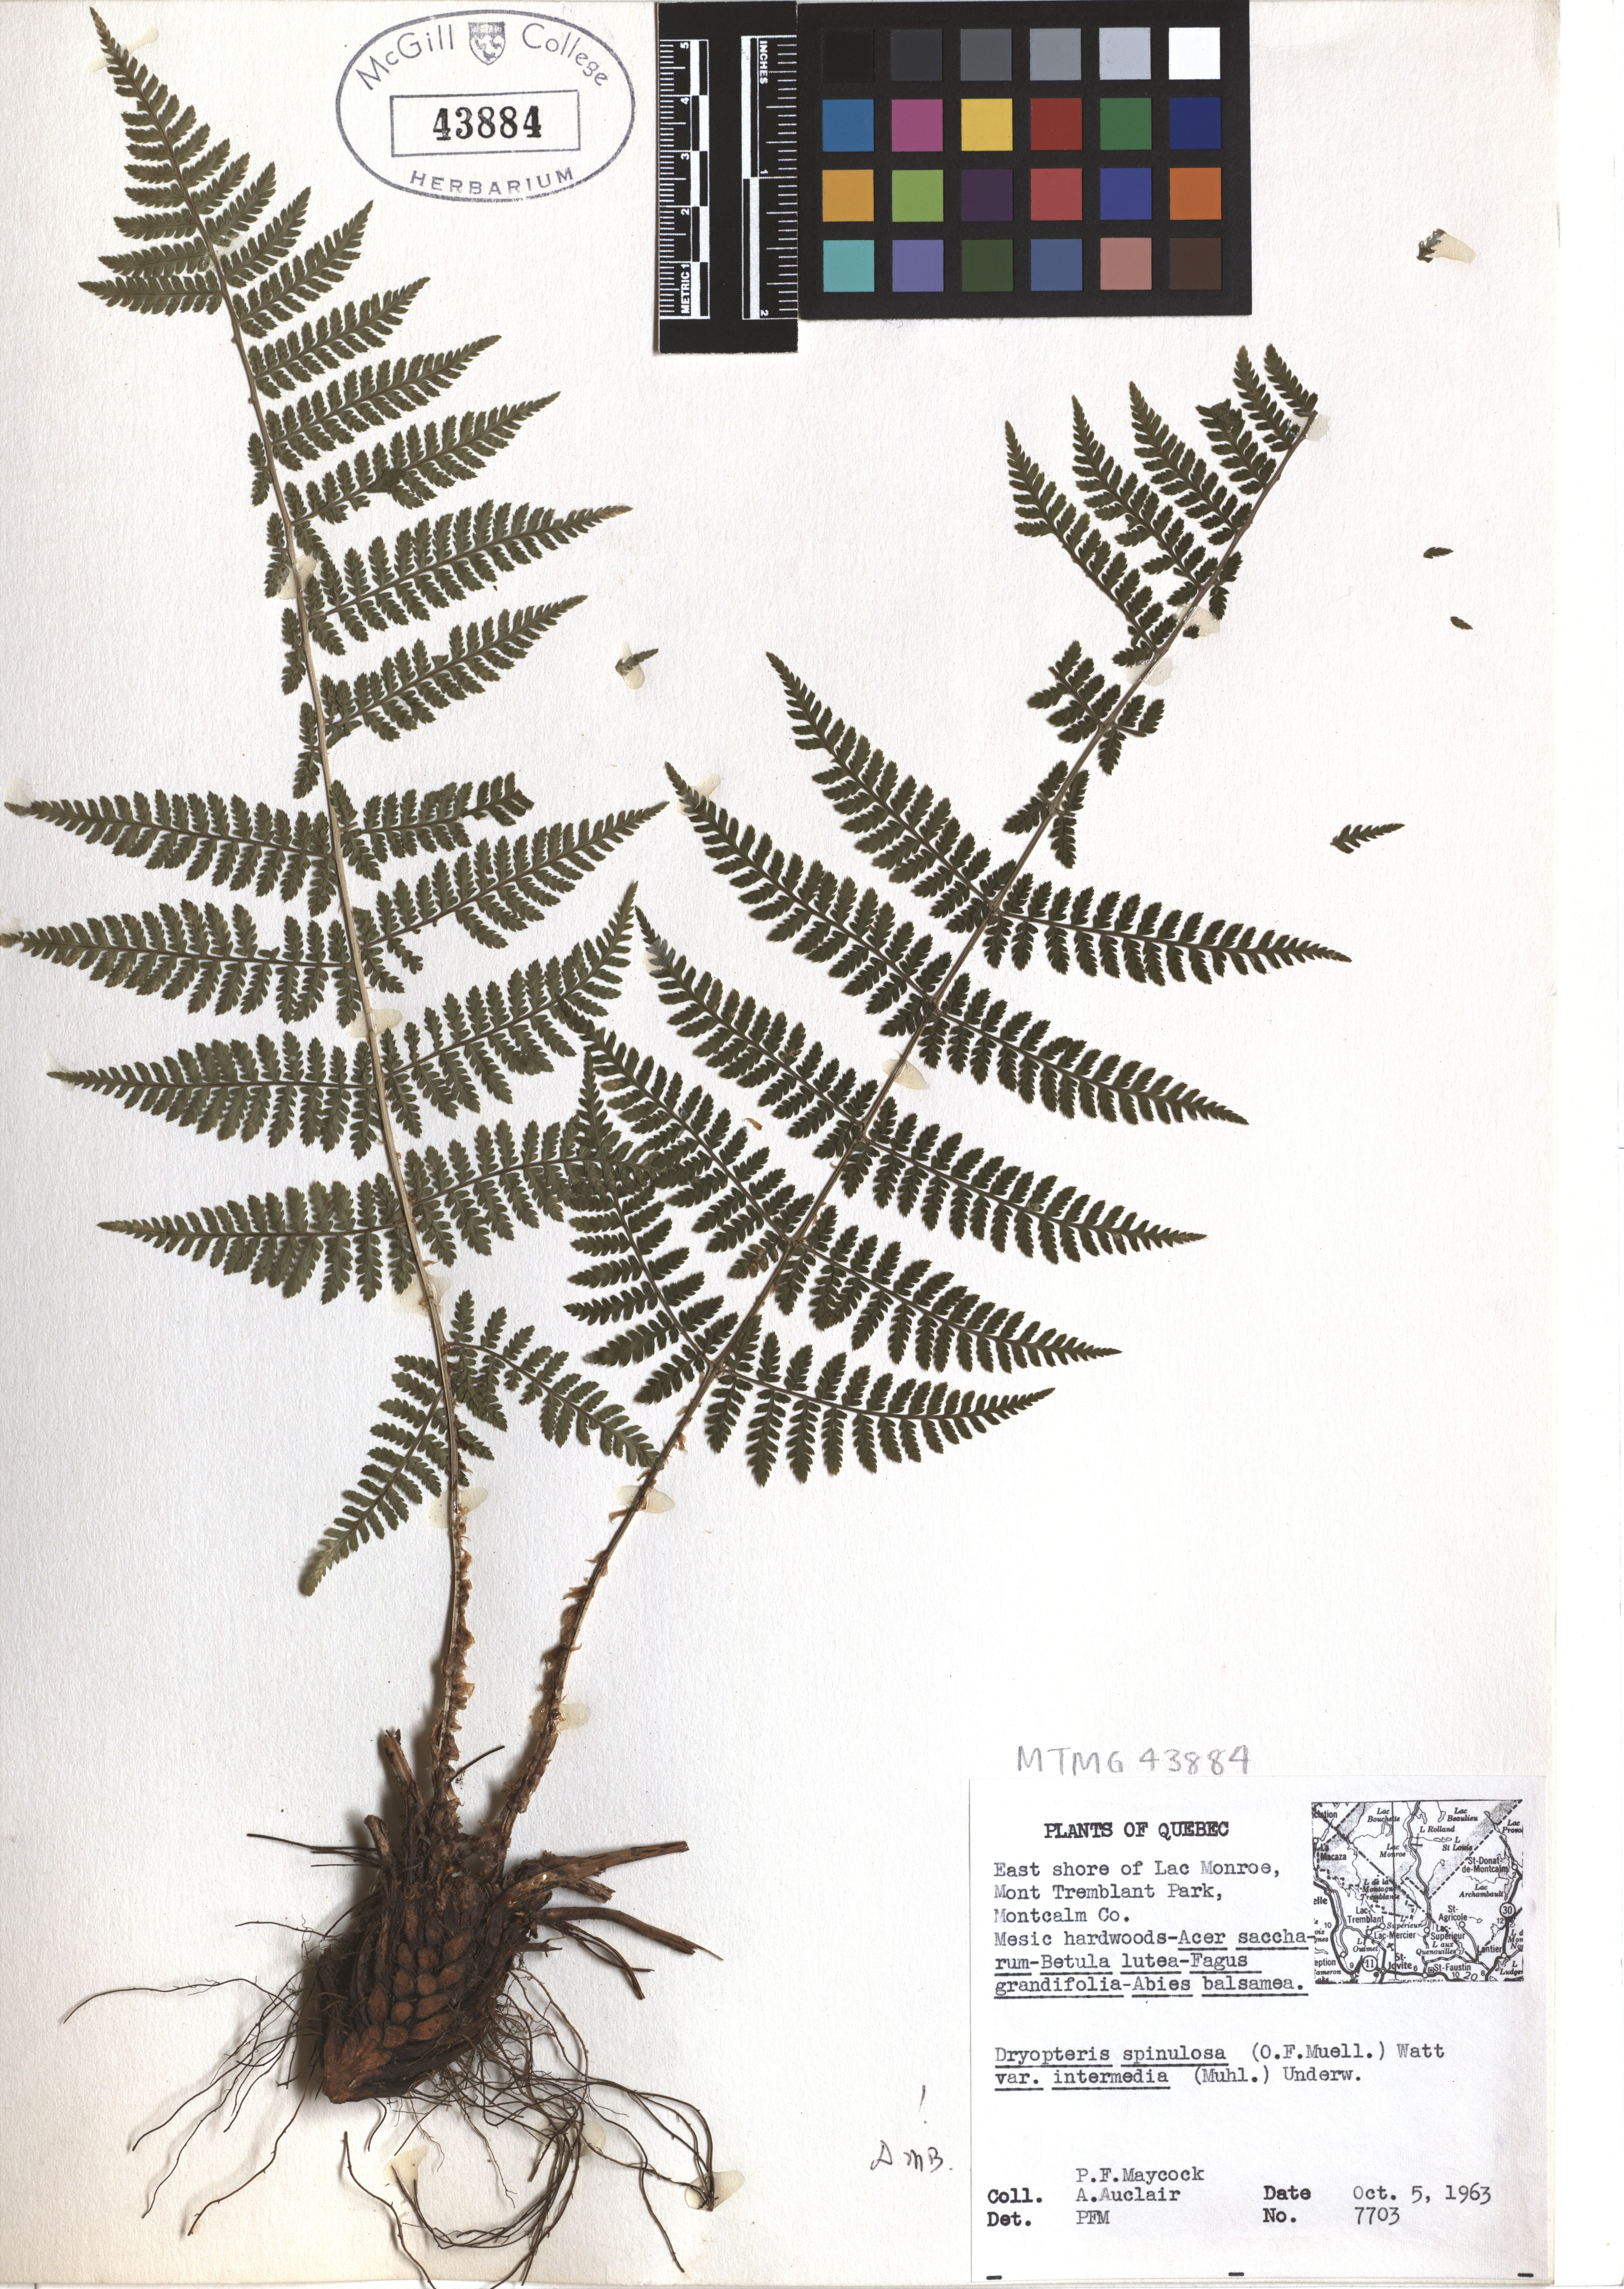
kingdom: Plantae
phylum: Tracheophyta
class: Polypodiopsida
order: Polypodiales
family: Dryopteridaceae
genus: Dryopteris
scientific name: Dryopteris intermedia
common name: Evergreen wood fern
